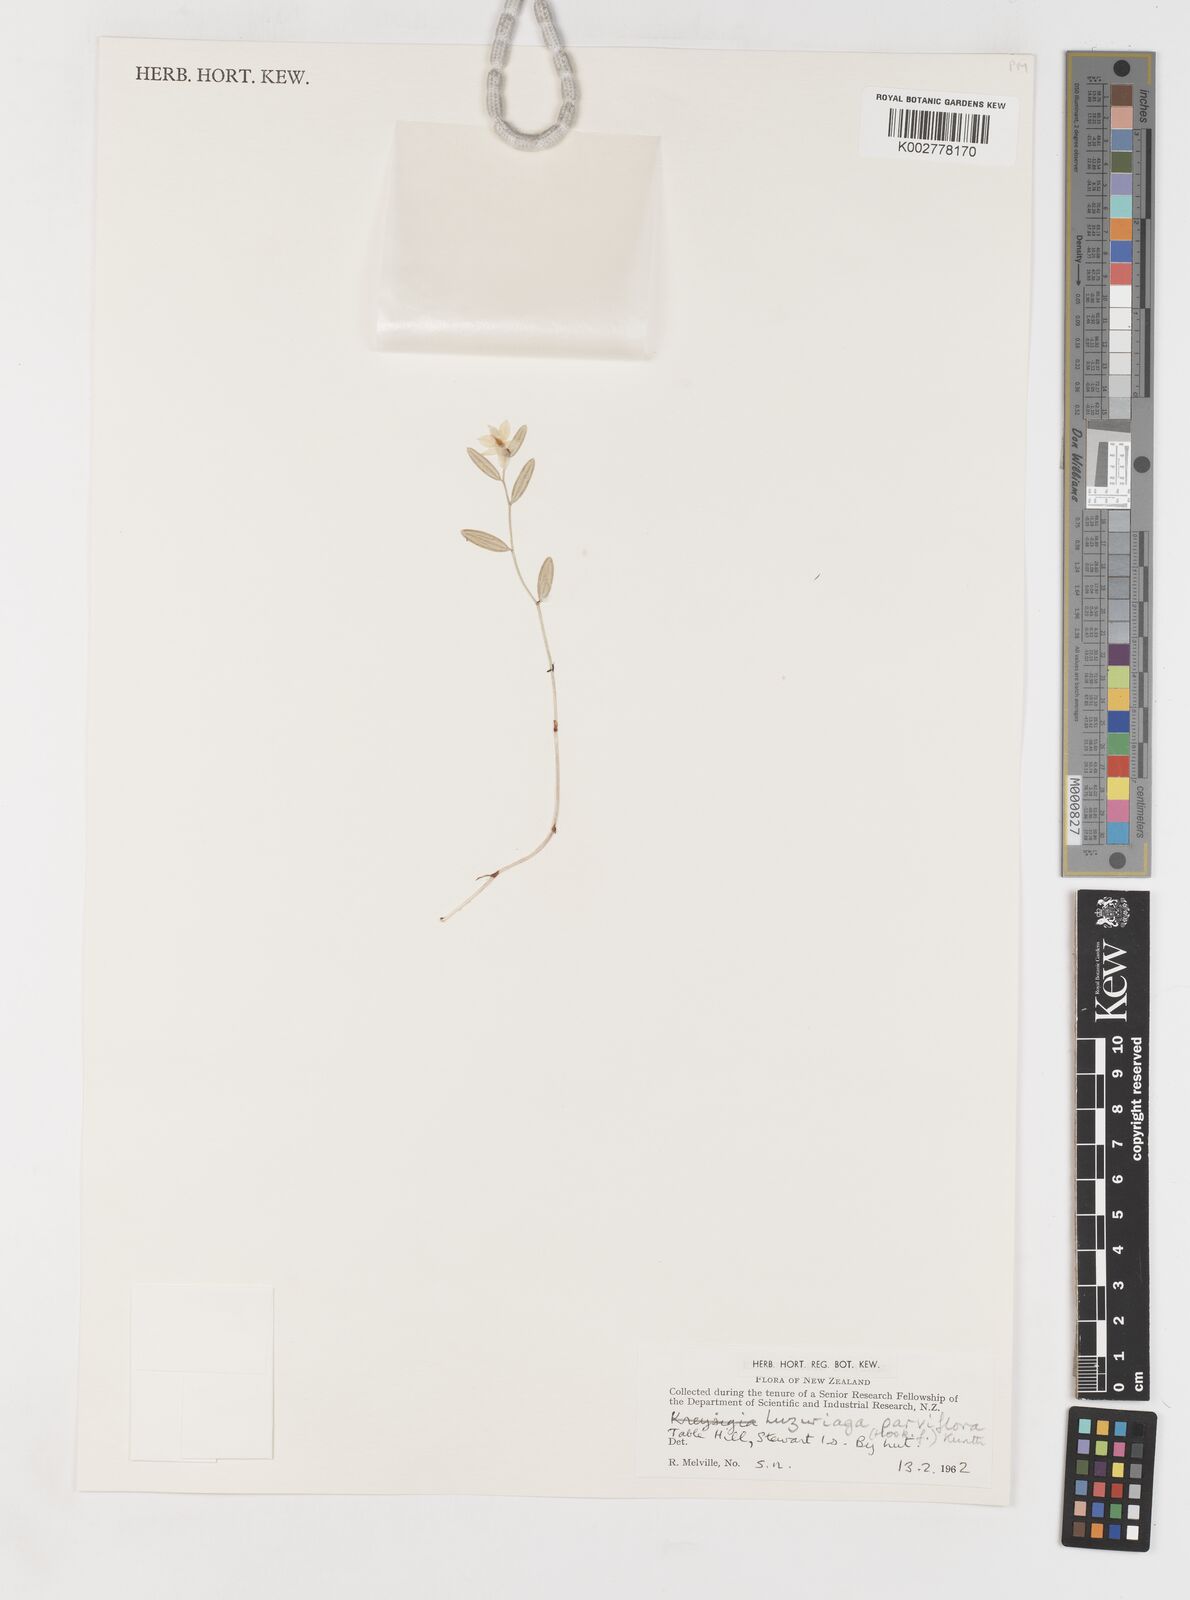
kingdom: Plantae
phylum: Tracheophyta
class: Liliopsida
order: Liliales
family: Alstroemeriaceae
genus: Luzuriaga
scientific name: Luzuriaga parviflora
